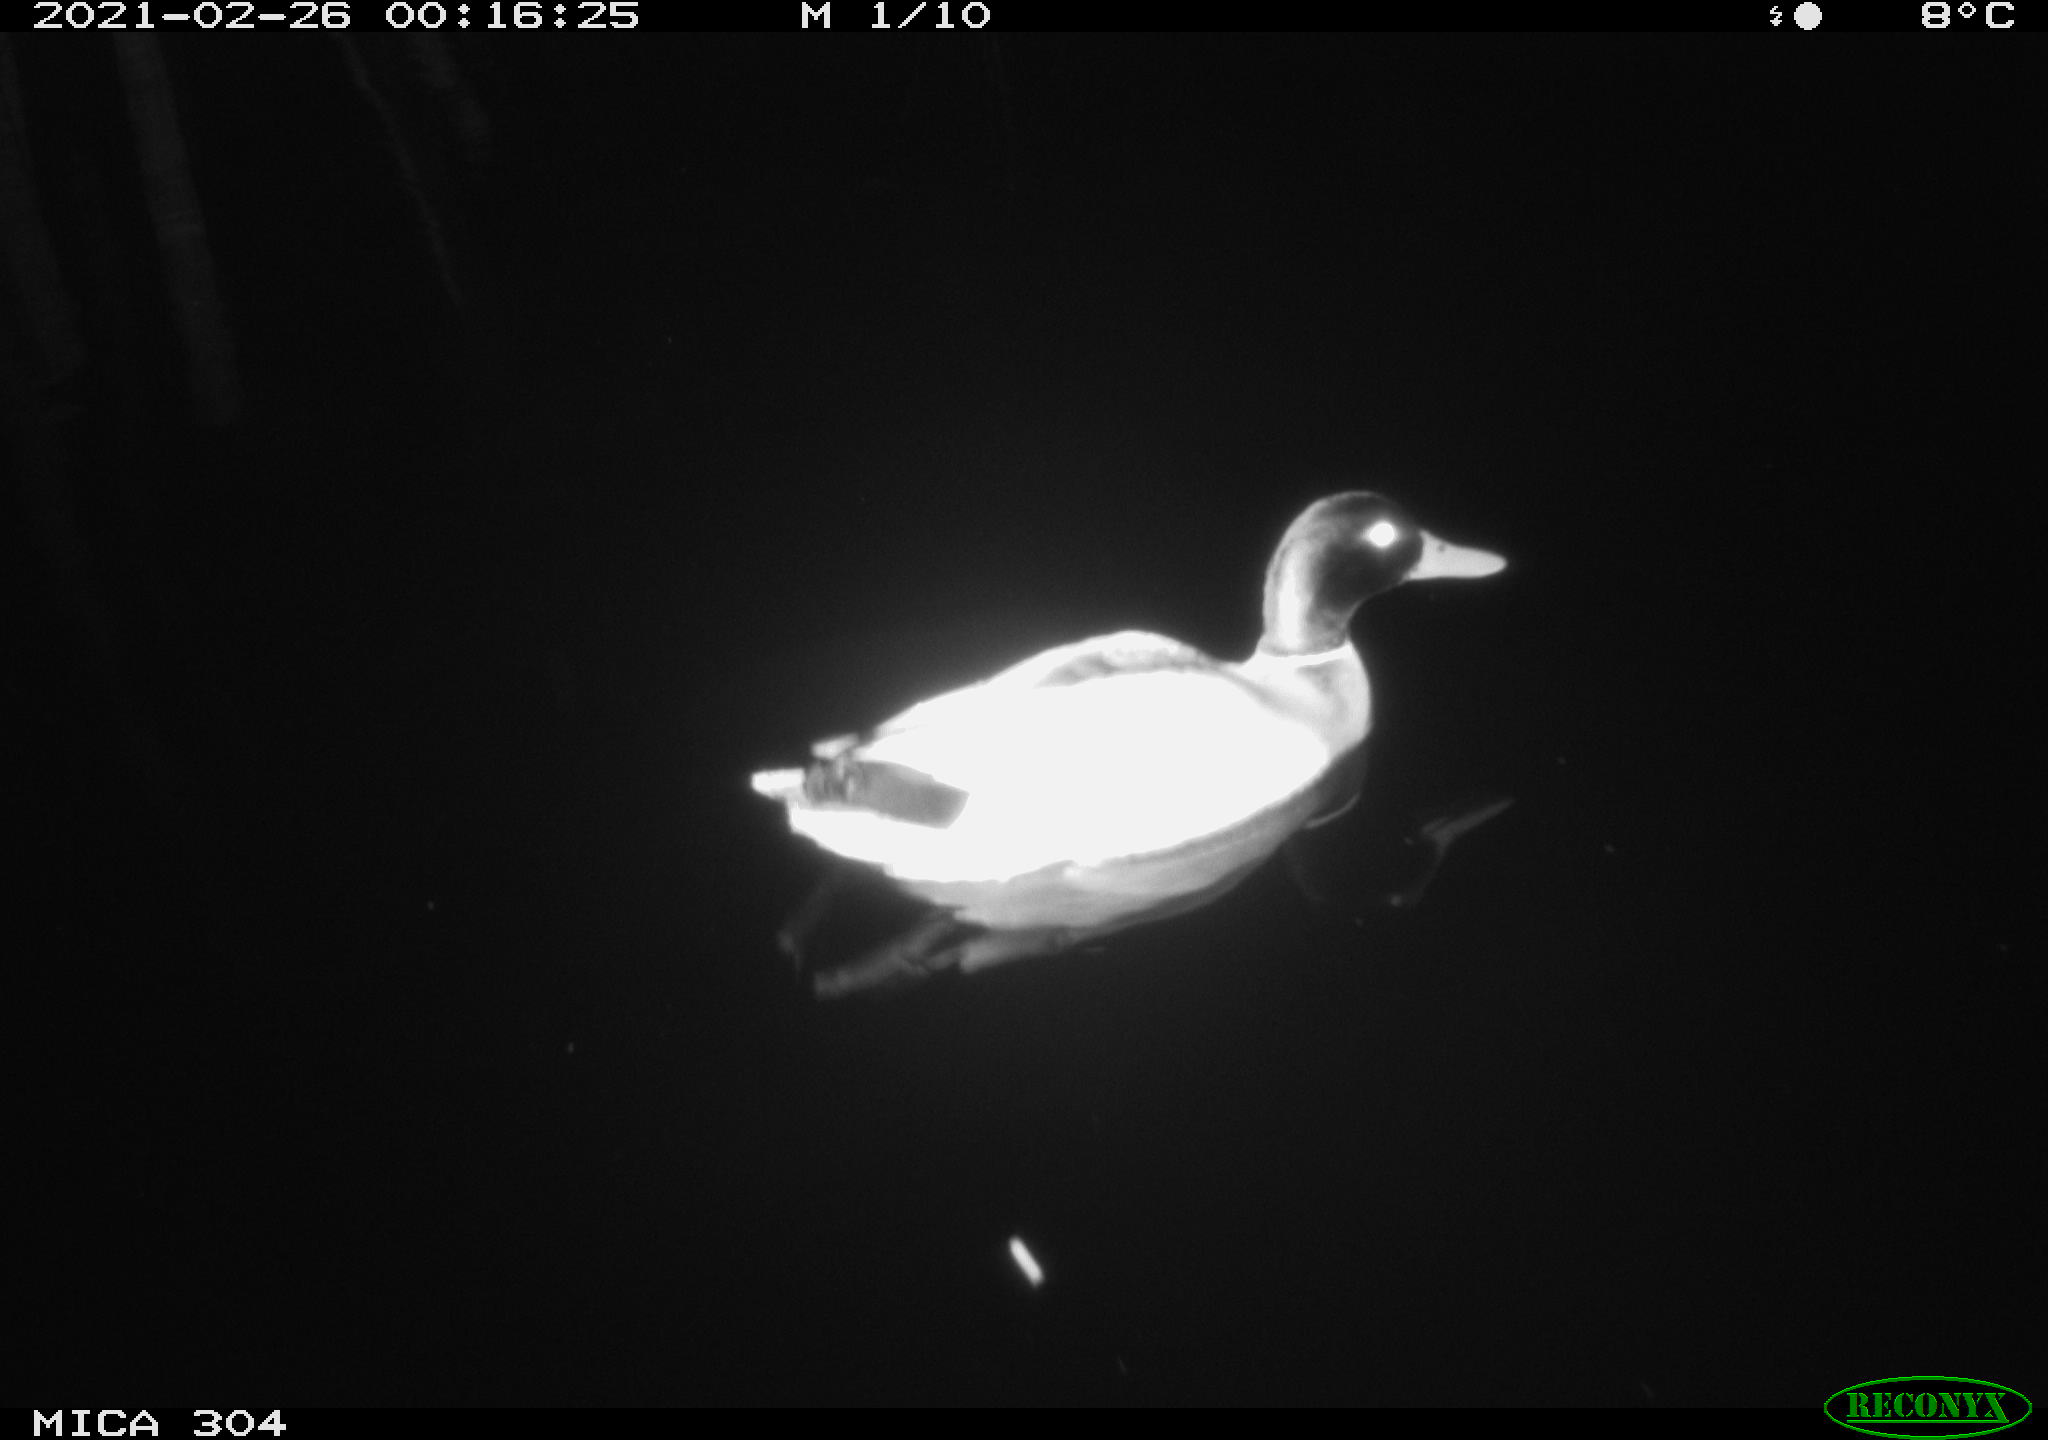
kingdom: Animalia
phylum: Chordata
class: Aves
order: Anseriformes
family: Anatidae
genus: Anas
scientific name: Anas platyrhynchos
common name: Mallard
